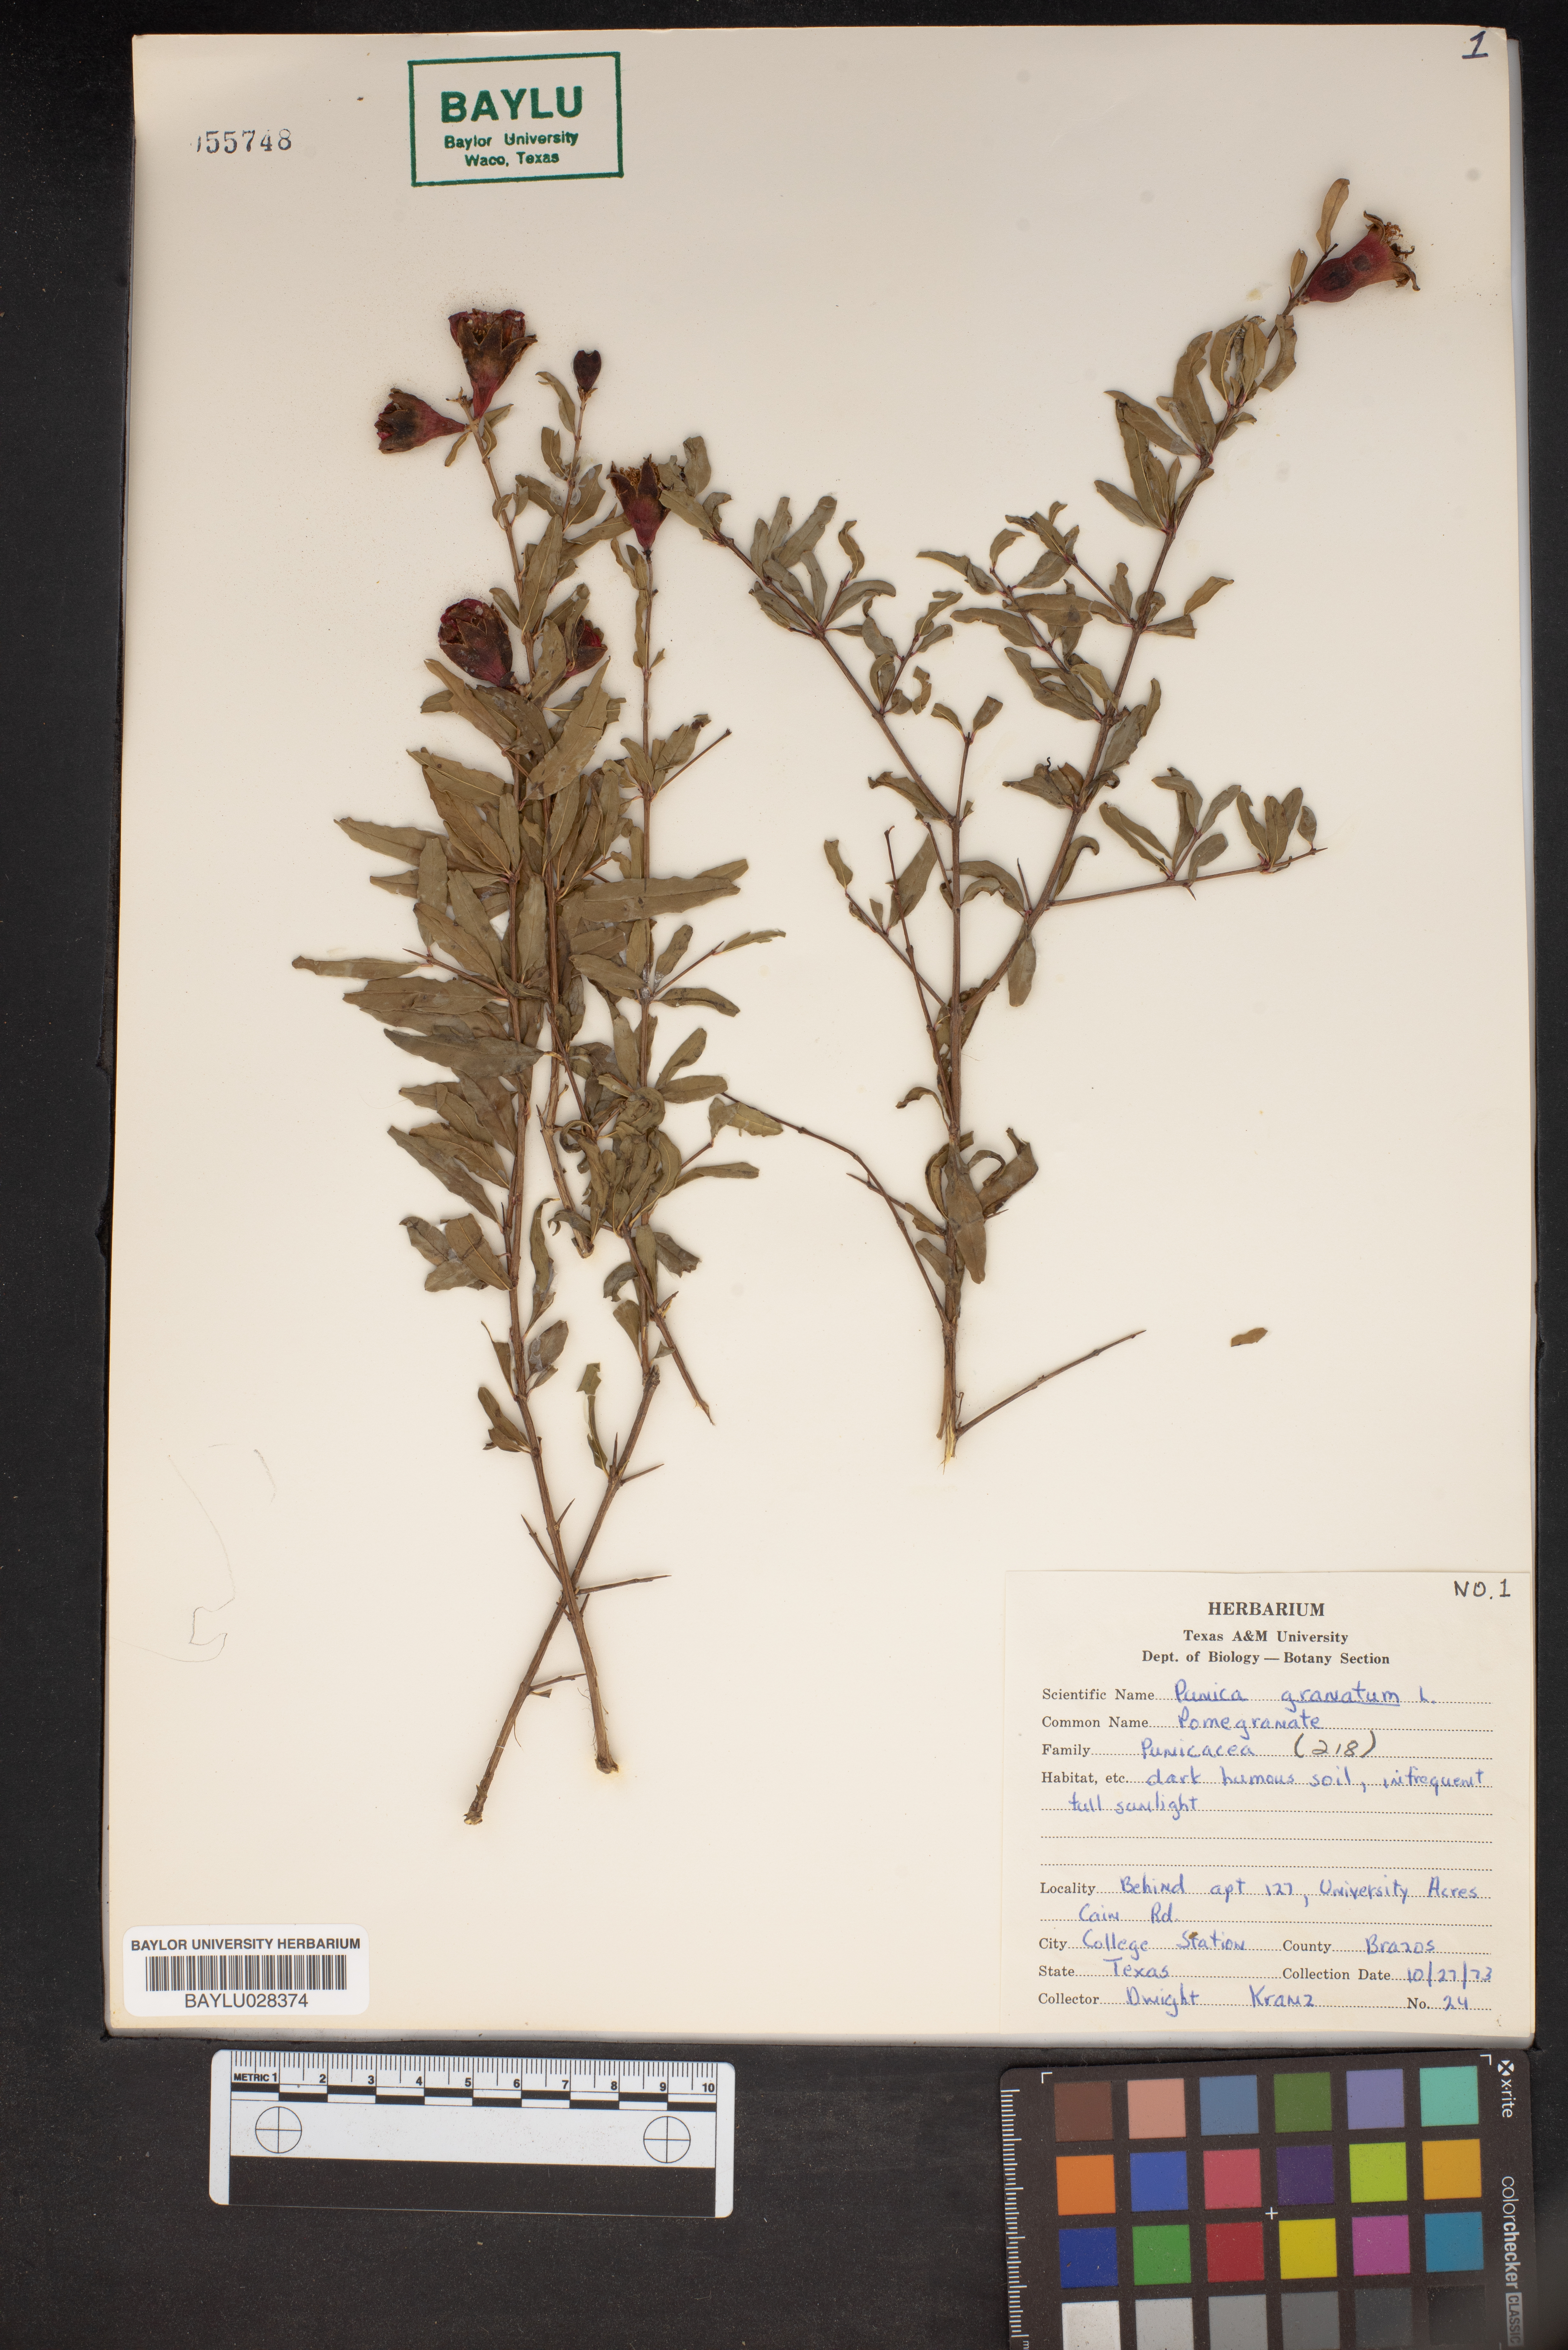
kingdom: Plantae
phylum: Tracheophyta
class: Magnoliopsida
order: Myrtales
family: Lythraceae
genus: Punica
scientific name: Punica granatum
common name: Pomegranate
